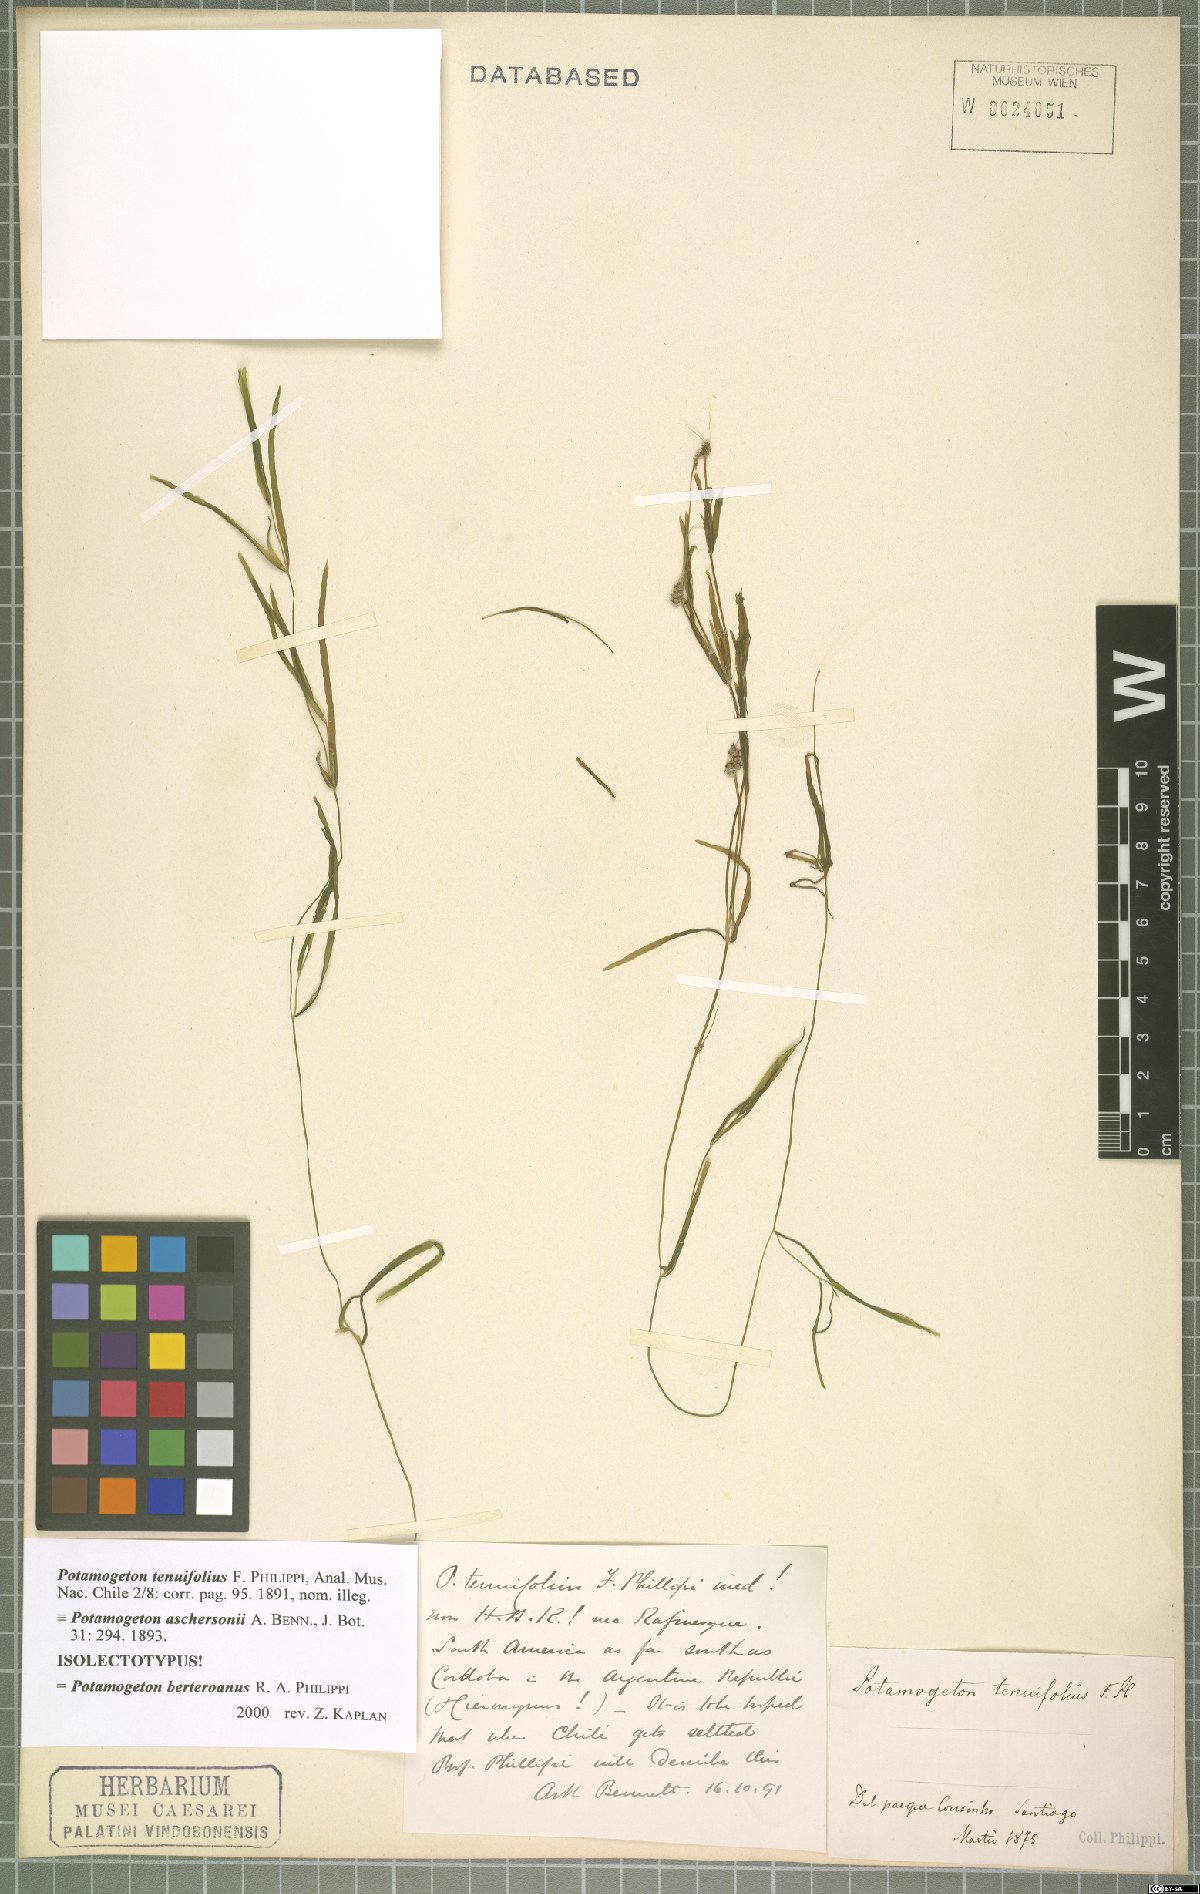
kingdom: Plantae
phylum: Tracheophyta
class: Liliopsida
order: Alismatales
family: Potamogetonaceae
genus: Potamogeton
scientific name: Potamogeton pusillus
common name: Lesser pondweed
